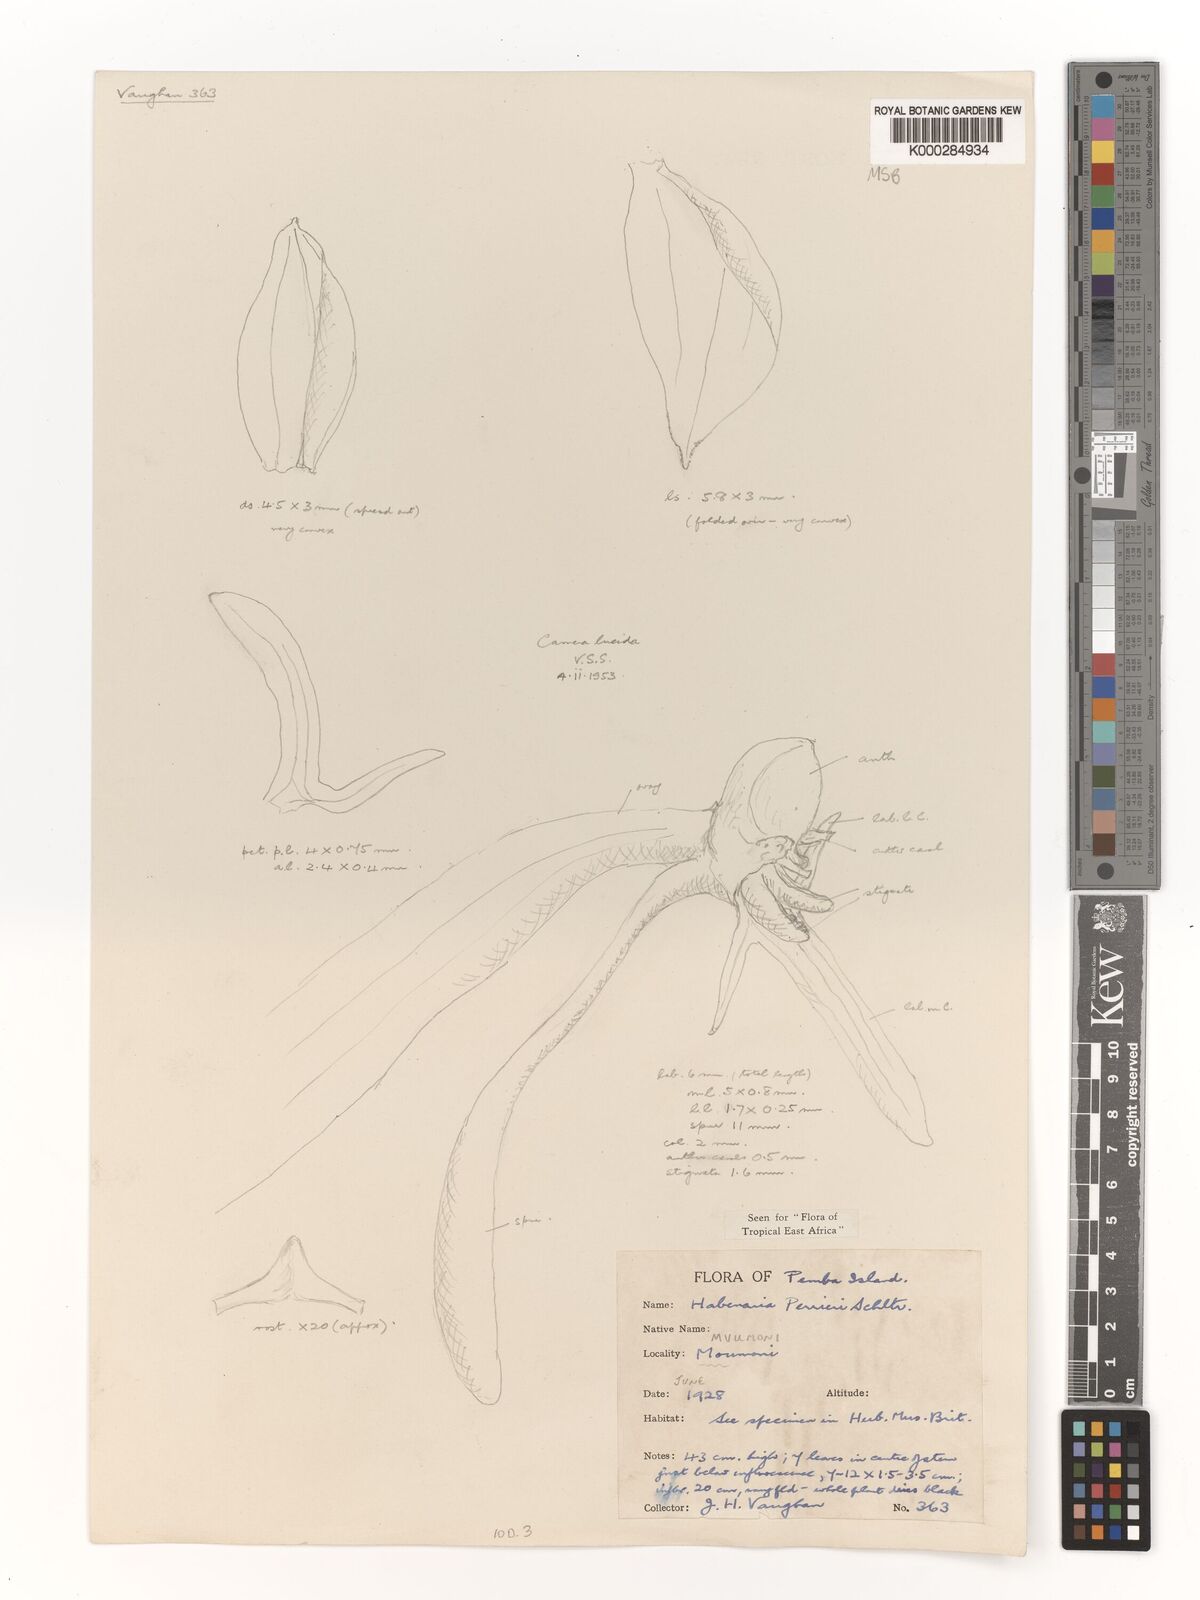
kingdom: Plantae
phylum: Tracheophyta
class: Liliopsida
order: Asparagales
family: Orchidaceae
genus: Habenaria
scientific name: Habenaria boiviniana
